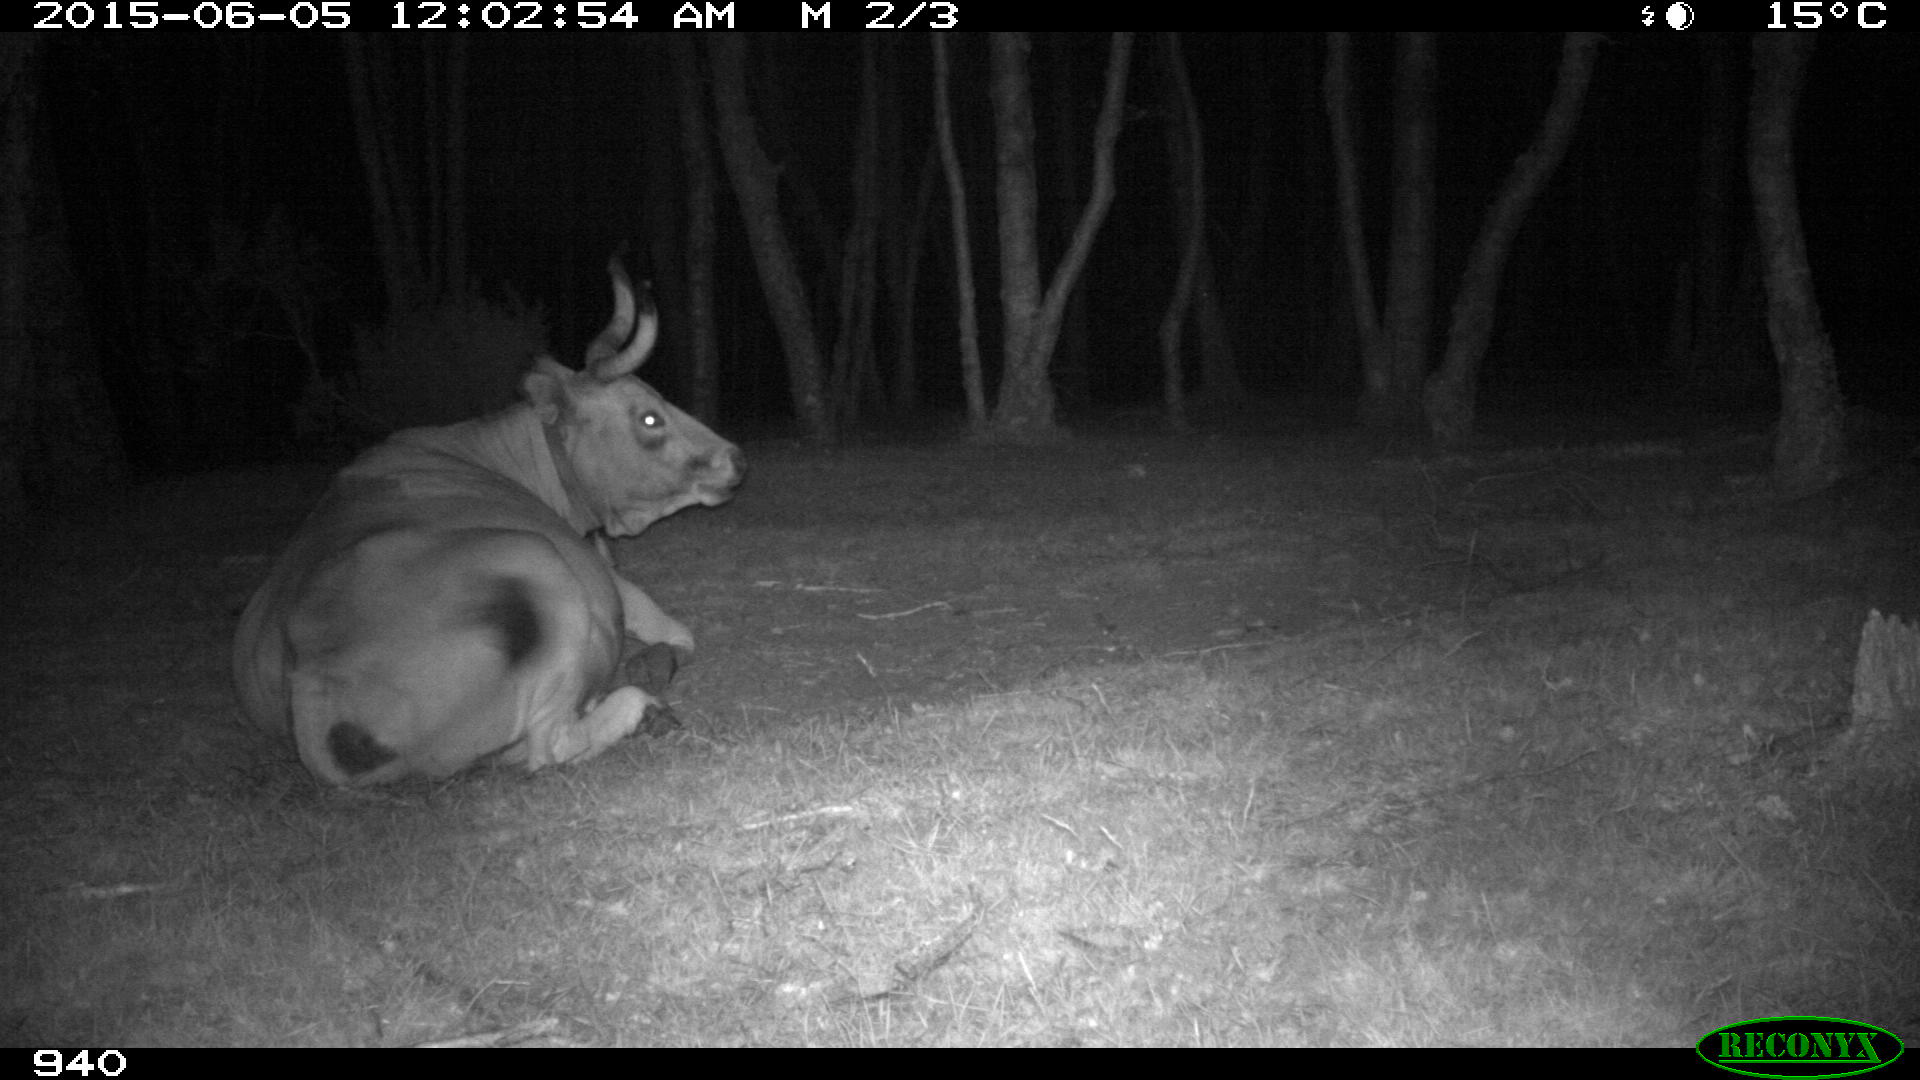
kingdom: Animalia
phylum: Chordata
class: Mammalia
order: Artiodactyla
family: Bovidae
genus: Bos
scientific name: Bos taurus
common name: Domesticated cattle
